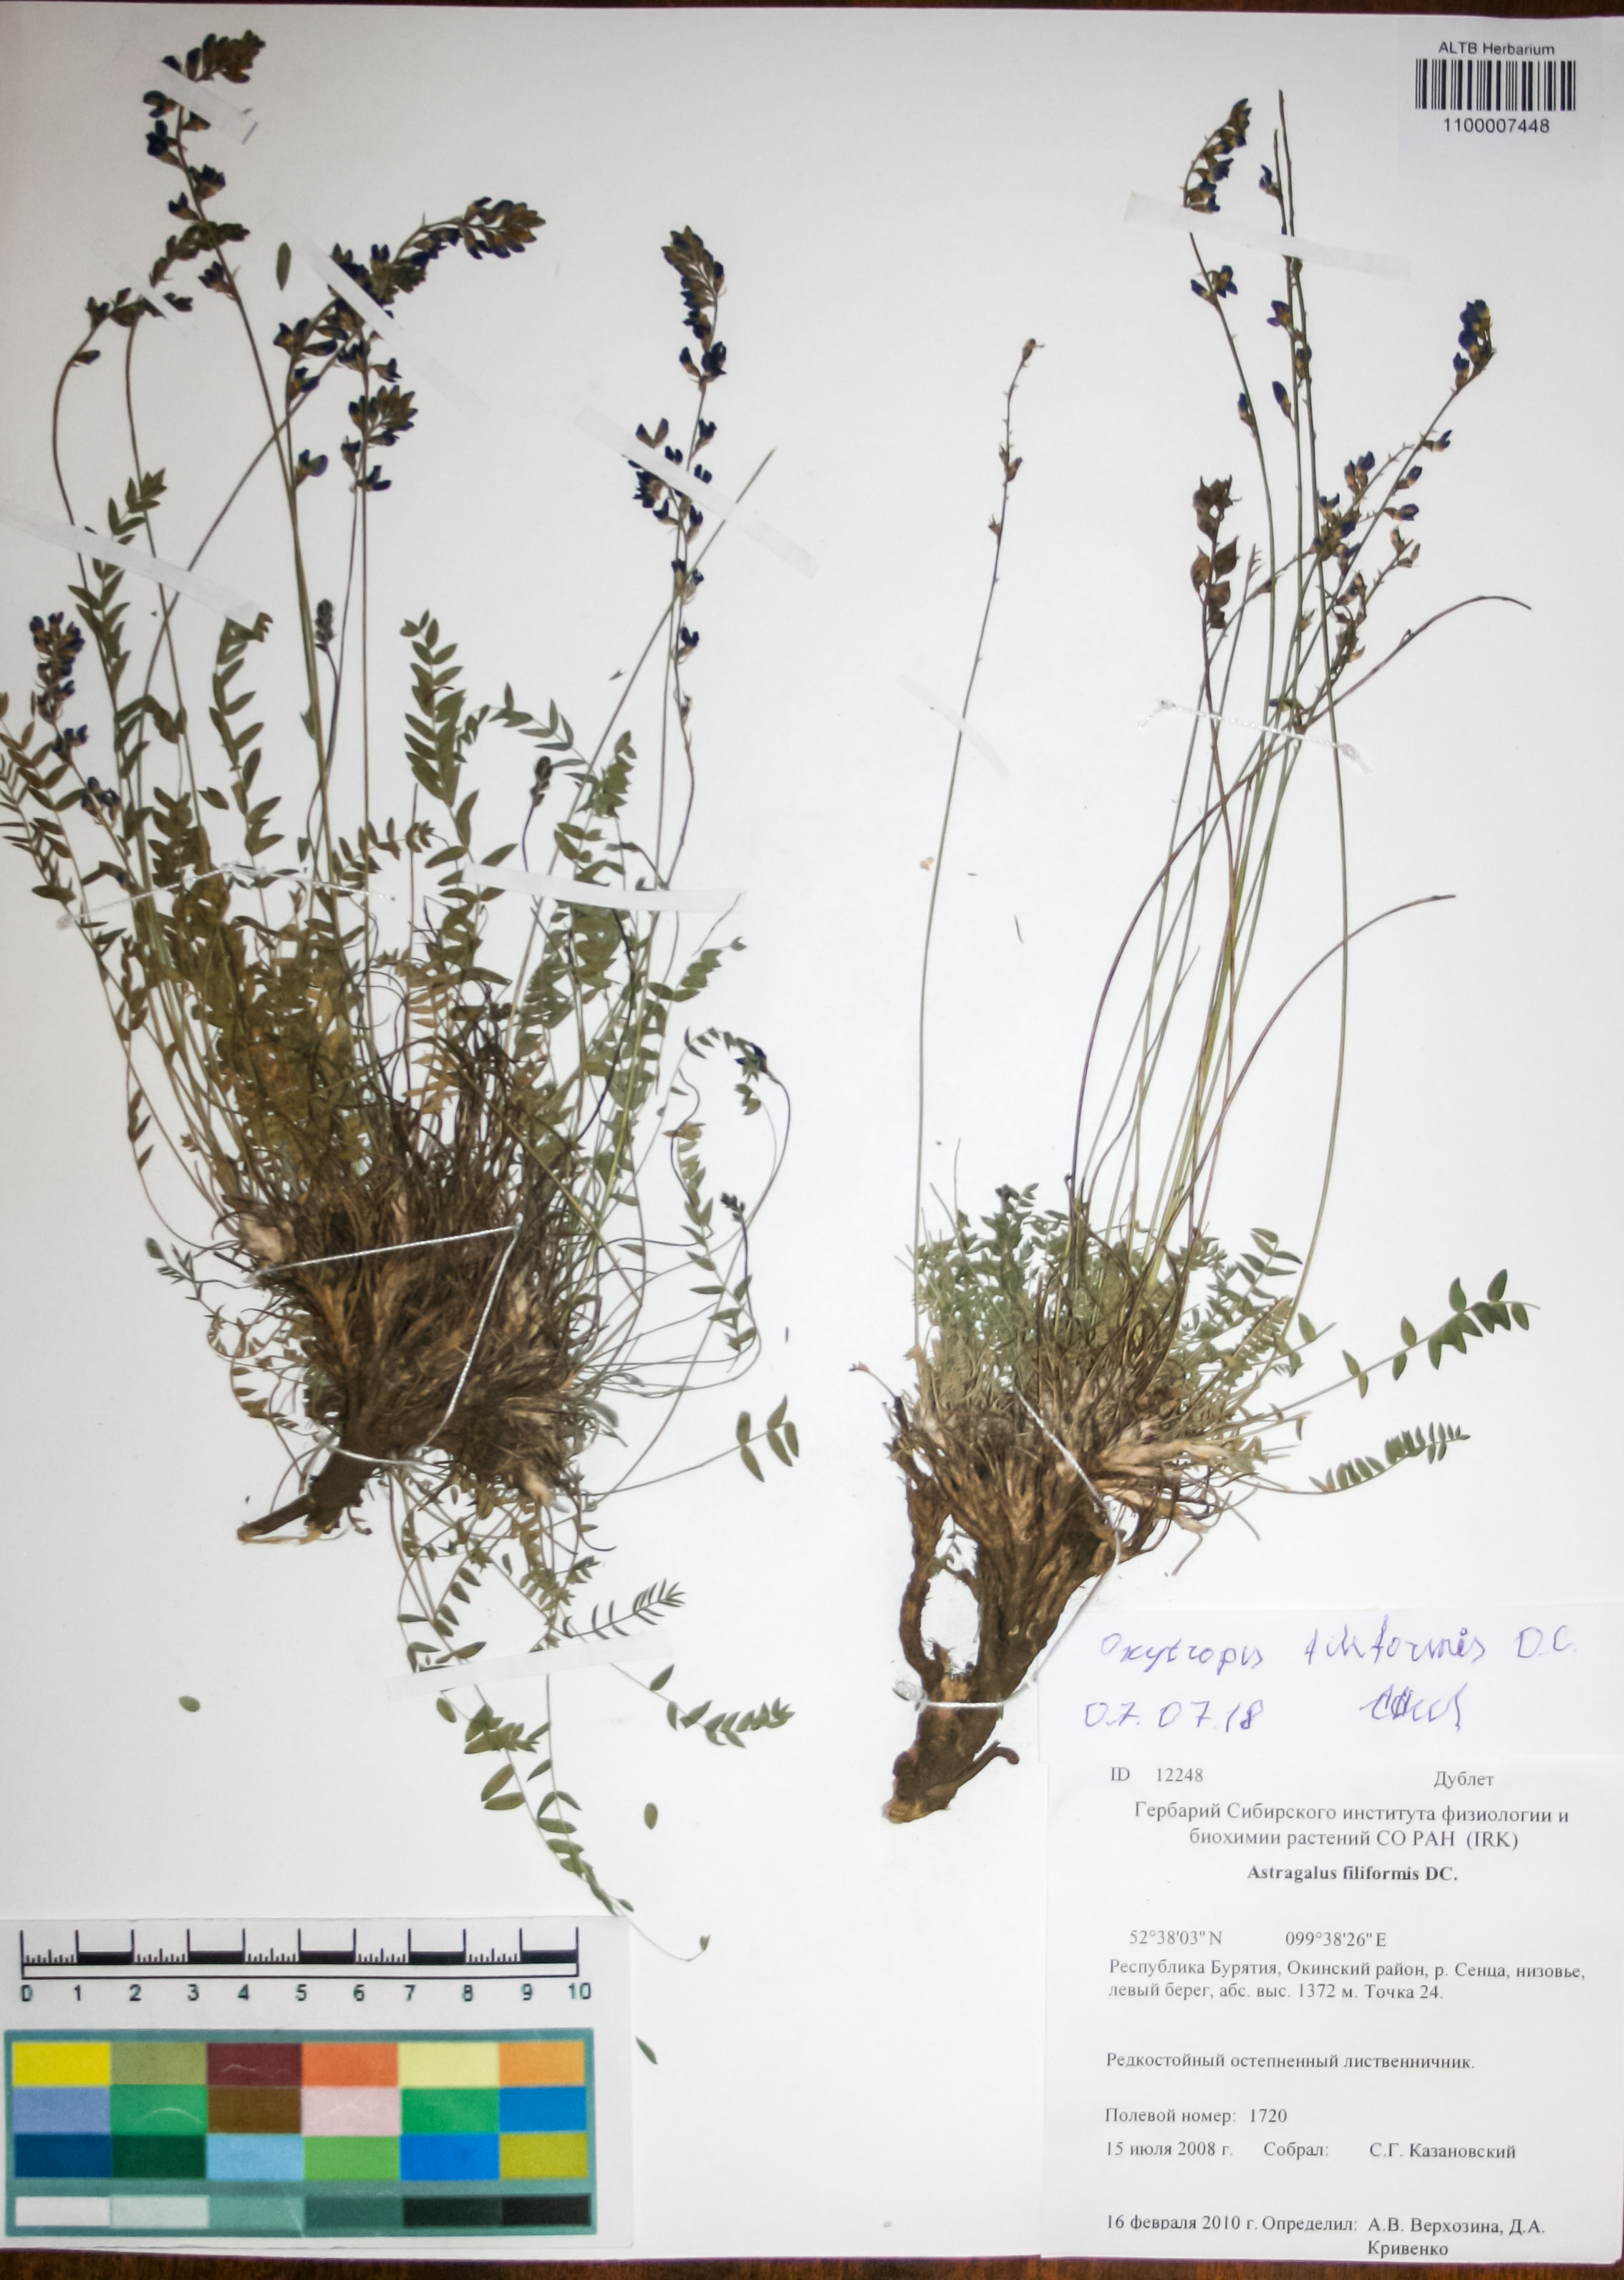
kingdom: Plantae
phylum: Tracheophyta
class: Magnoliopsida
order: Fabales
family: Fabaceae
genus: Astragalus
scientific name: Astragalus filiformis
